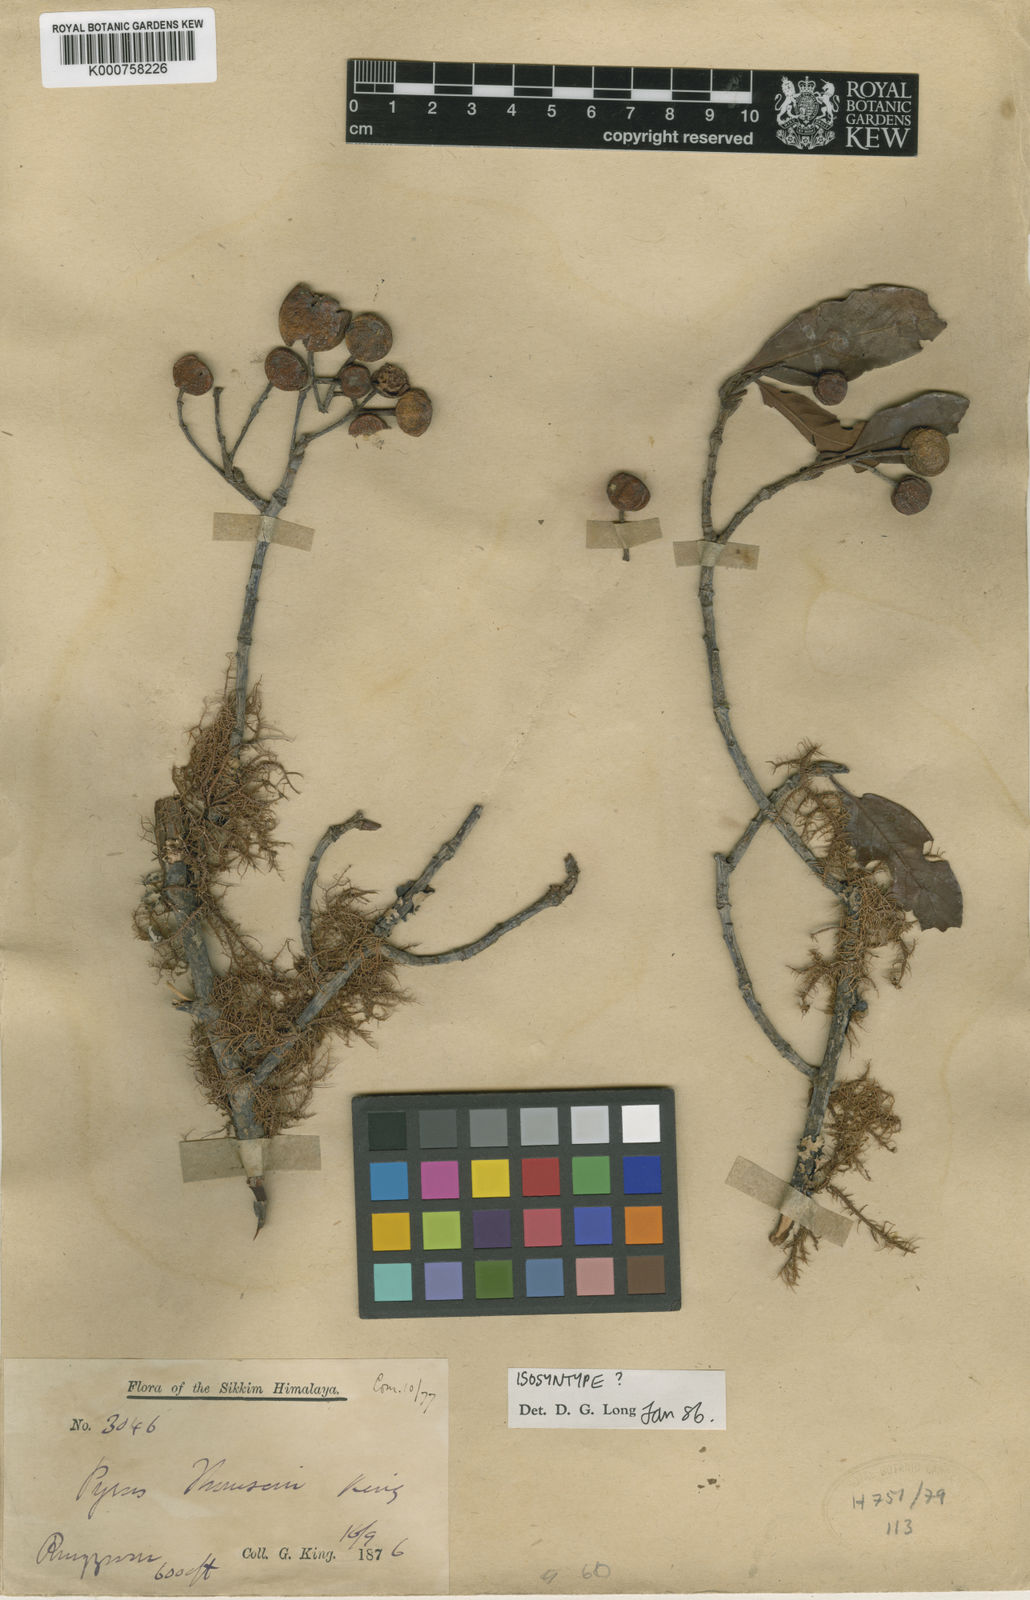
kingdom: Plantae
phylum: Tracheophyta
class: Magnoliopsida
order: Rosales
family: Rosaceae
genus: Sorbus
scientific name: Sorbus ferruginea
